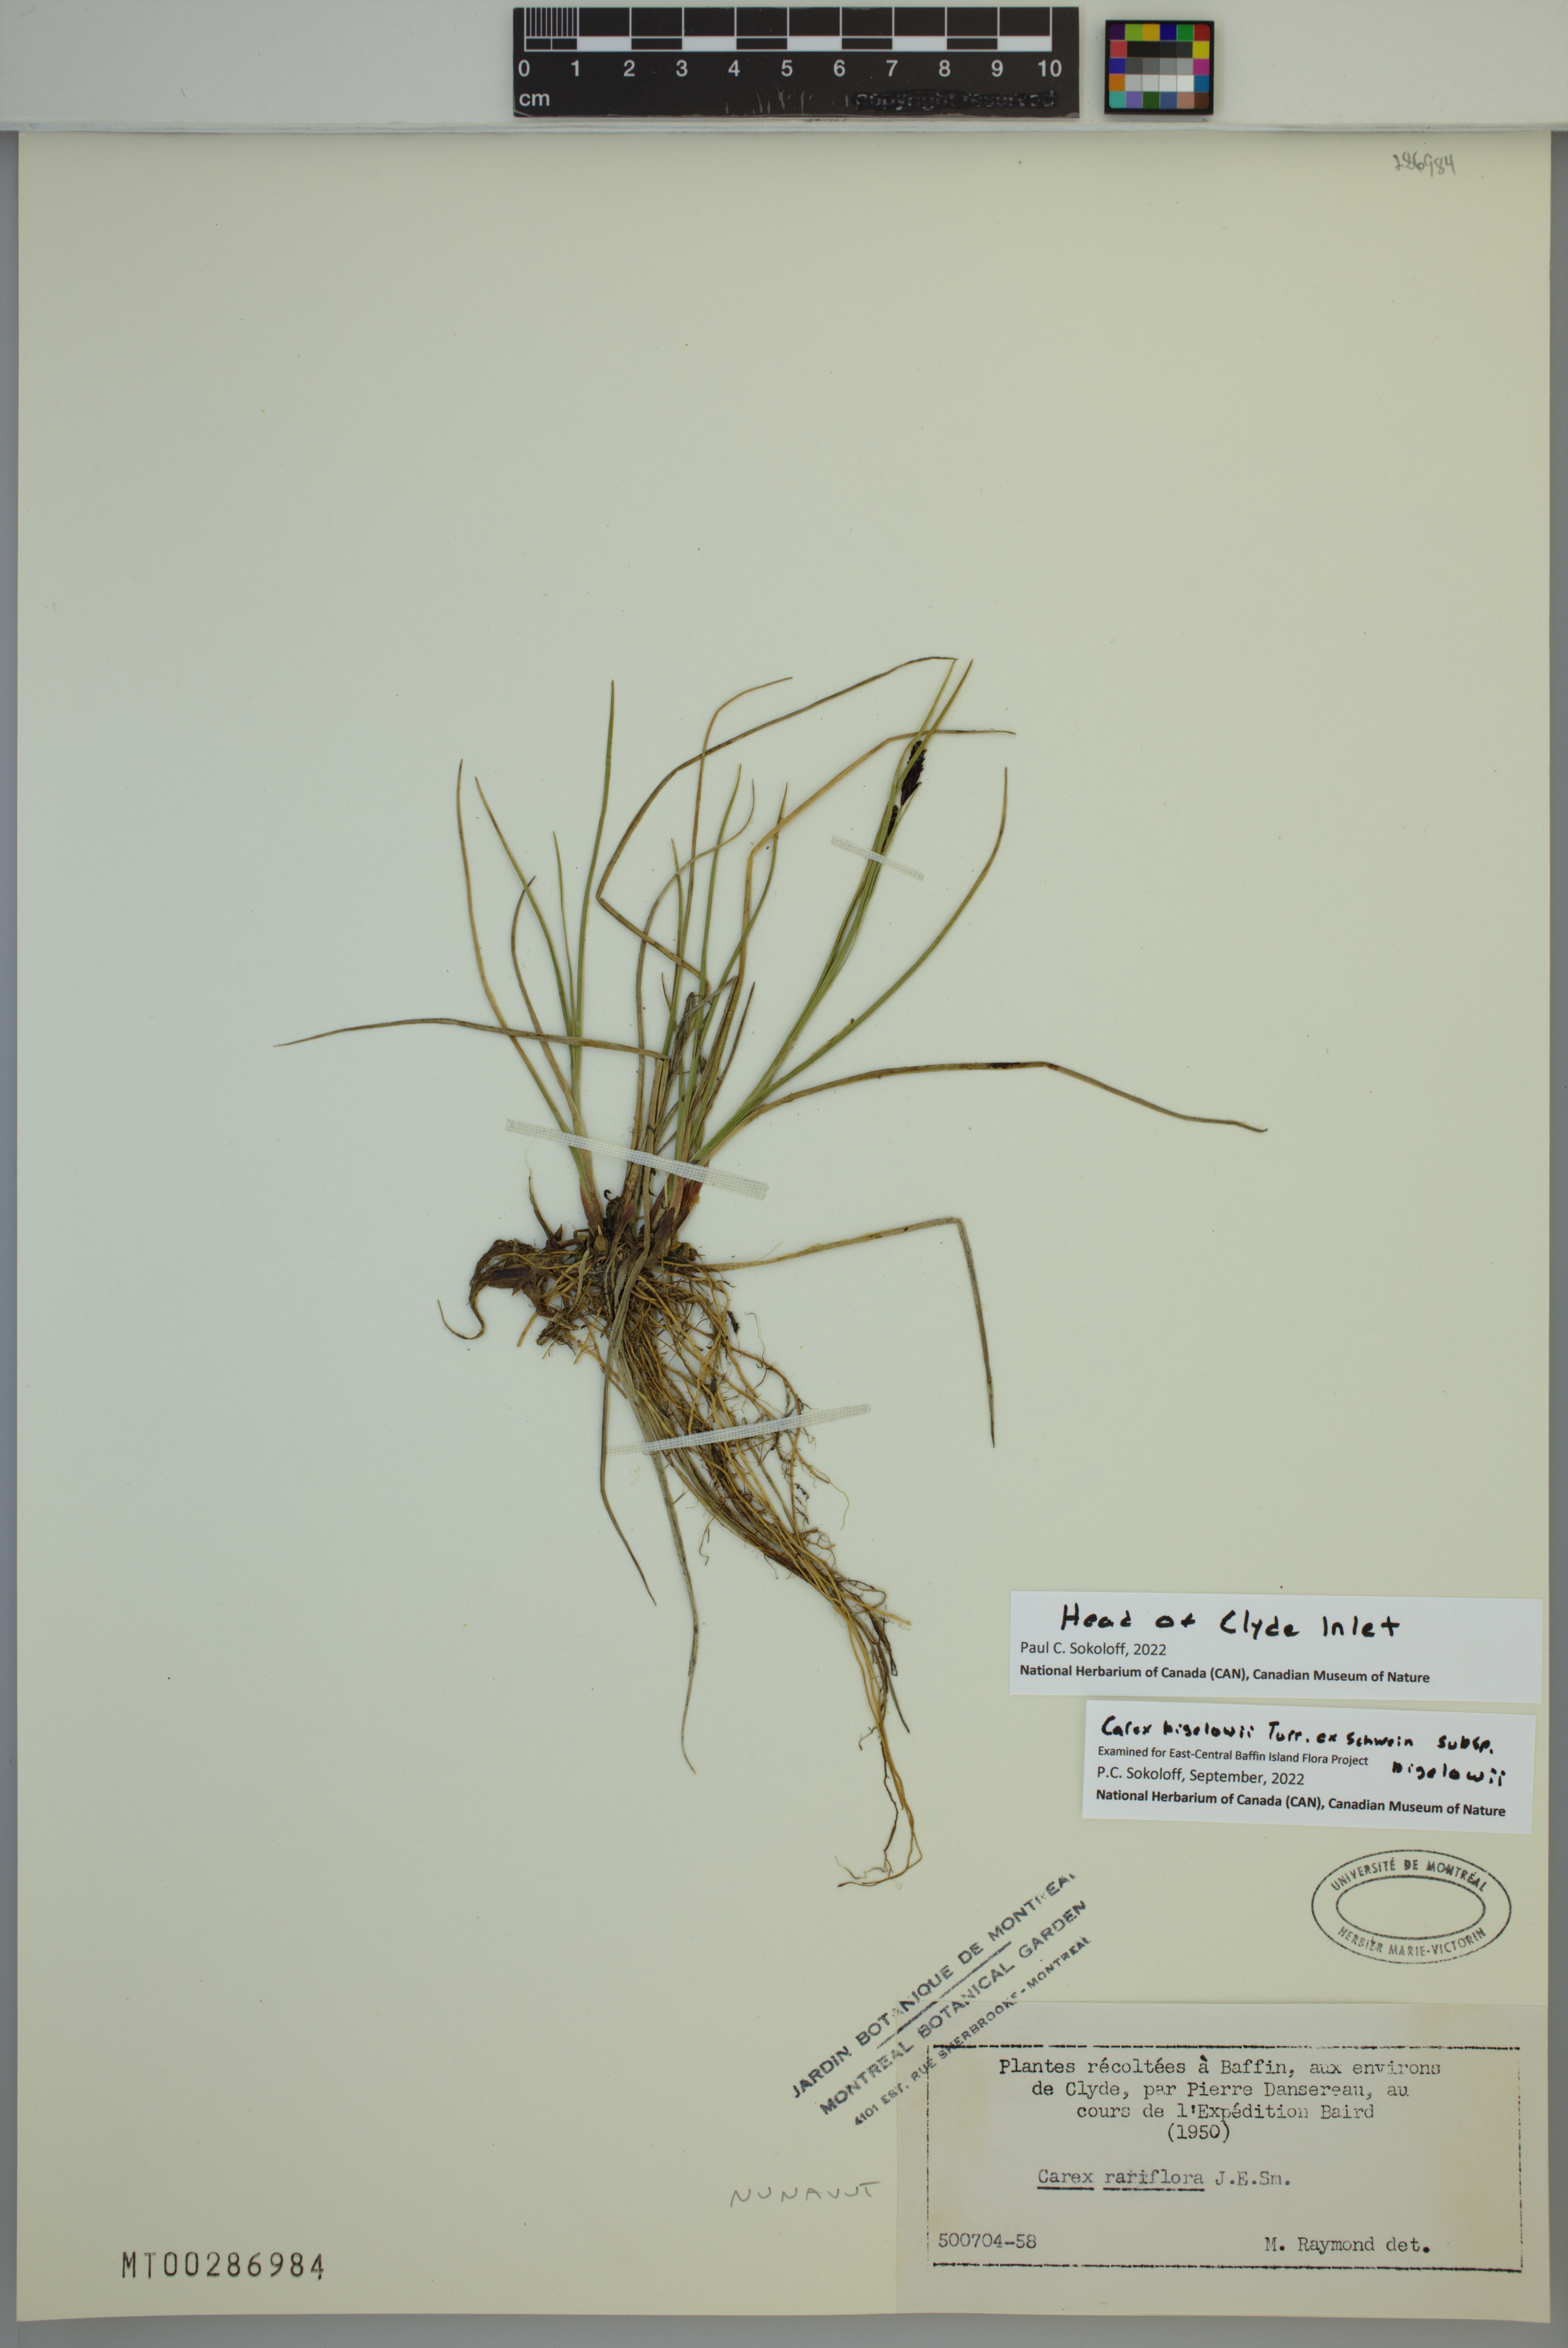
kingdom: Plantae
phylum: Tracheophyta
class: Liliopsida
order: Poales
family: Cyperaceae
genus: Carex
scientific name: Carex bigelowii
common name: Stiff sedge
